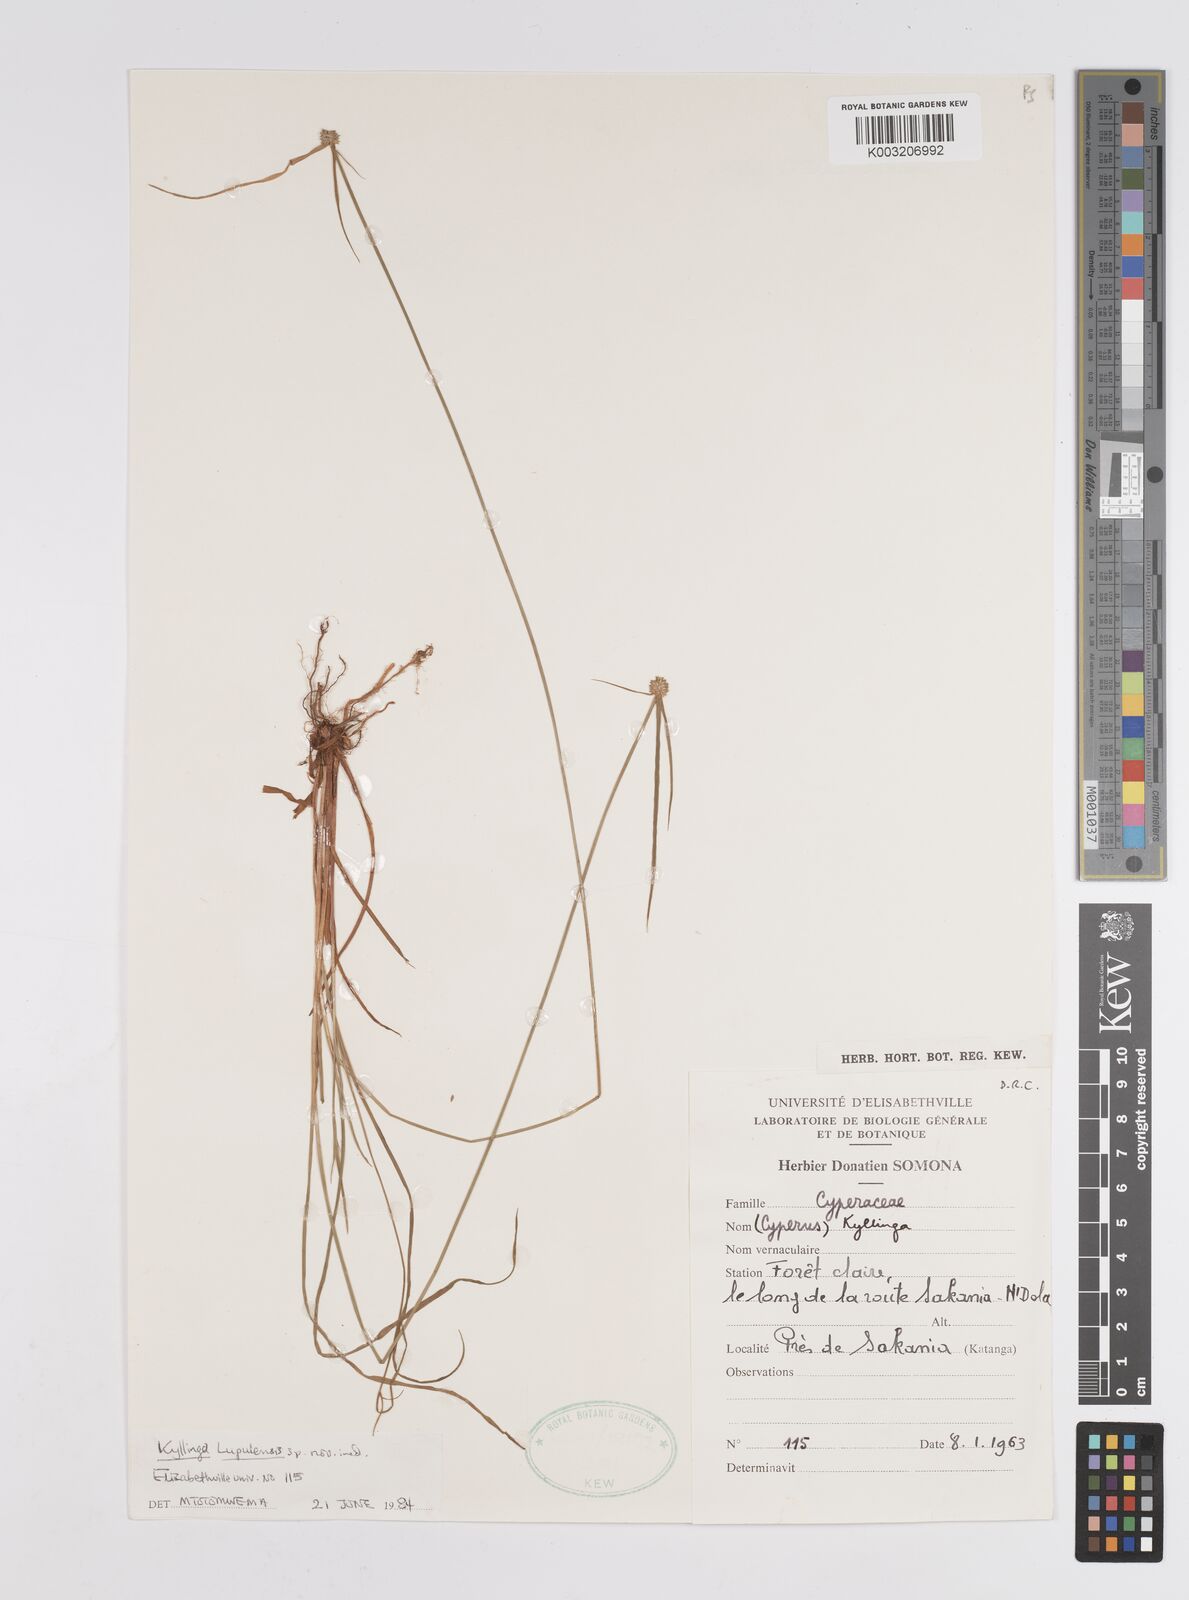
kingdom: Plantae
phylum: Tracheophyta
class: Liliopsida
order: Poales
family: Cyperaceae
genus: Cyperus
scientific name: Cyperus
